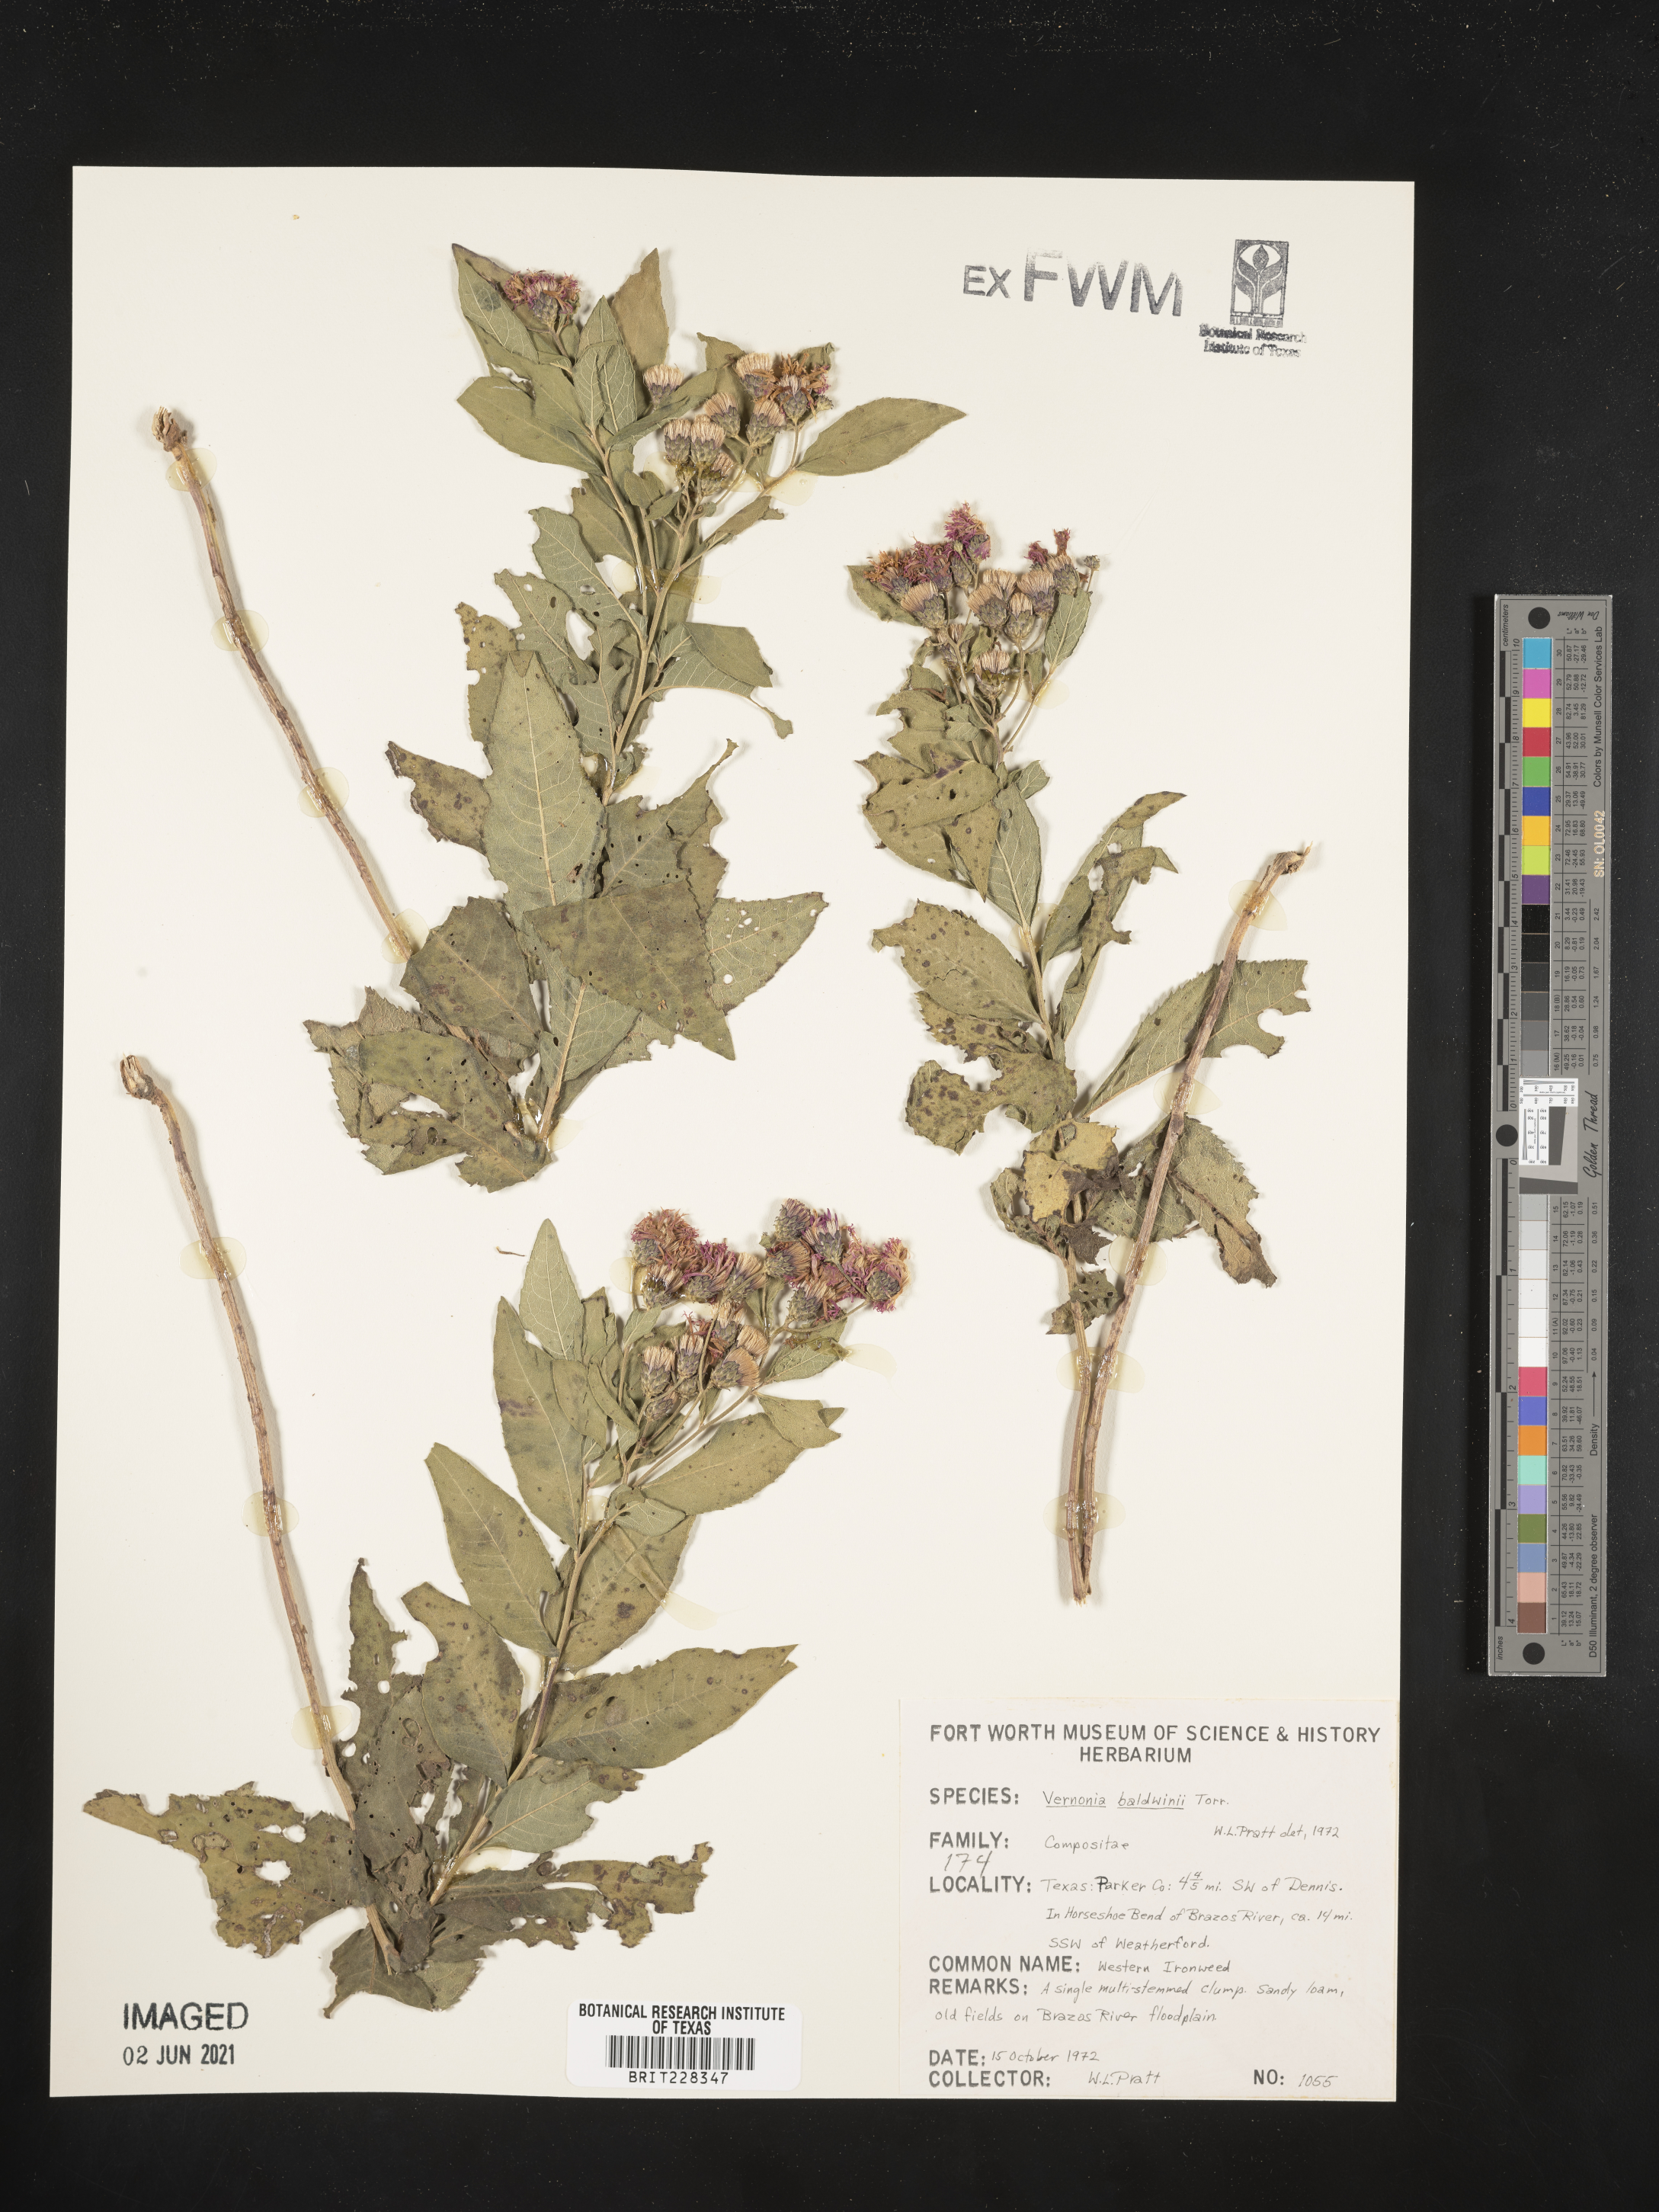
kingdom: Plantae
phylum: Tracheophyta
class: Magnoliopsida
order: Asterales
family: Asteraceae
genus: Vernonia
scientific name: Vernonia baldwinii
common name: Western ironweed
